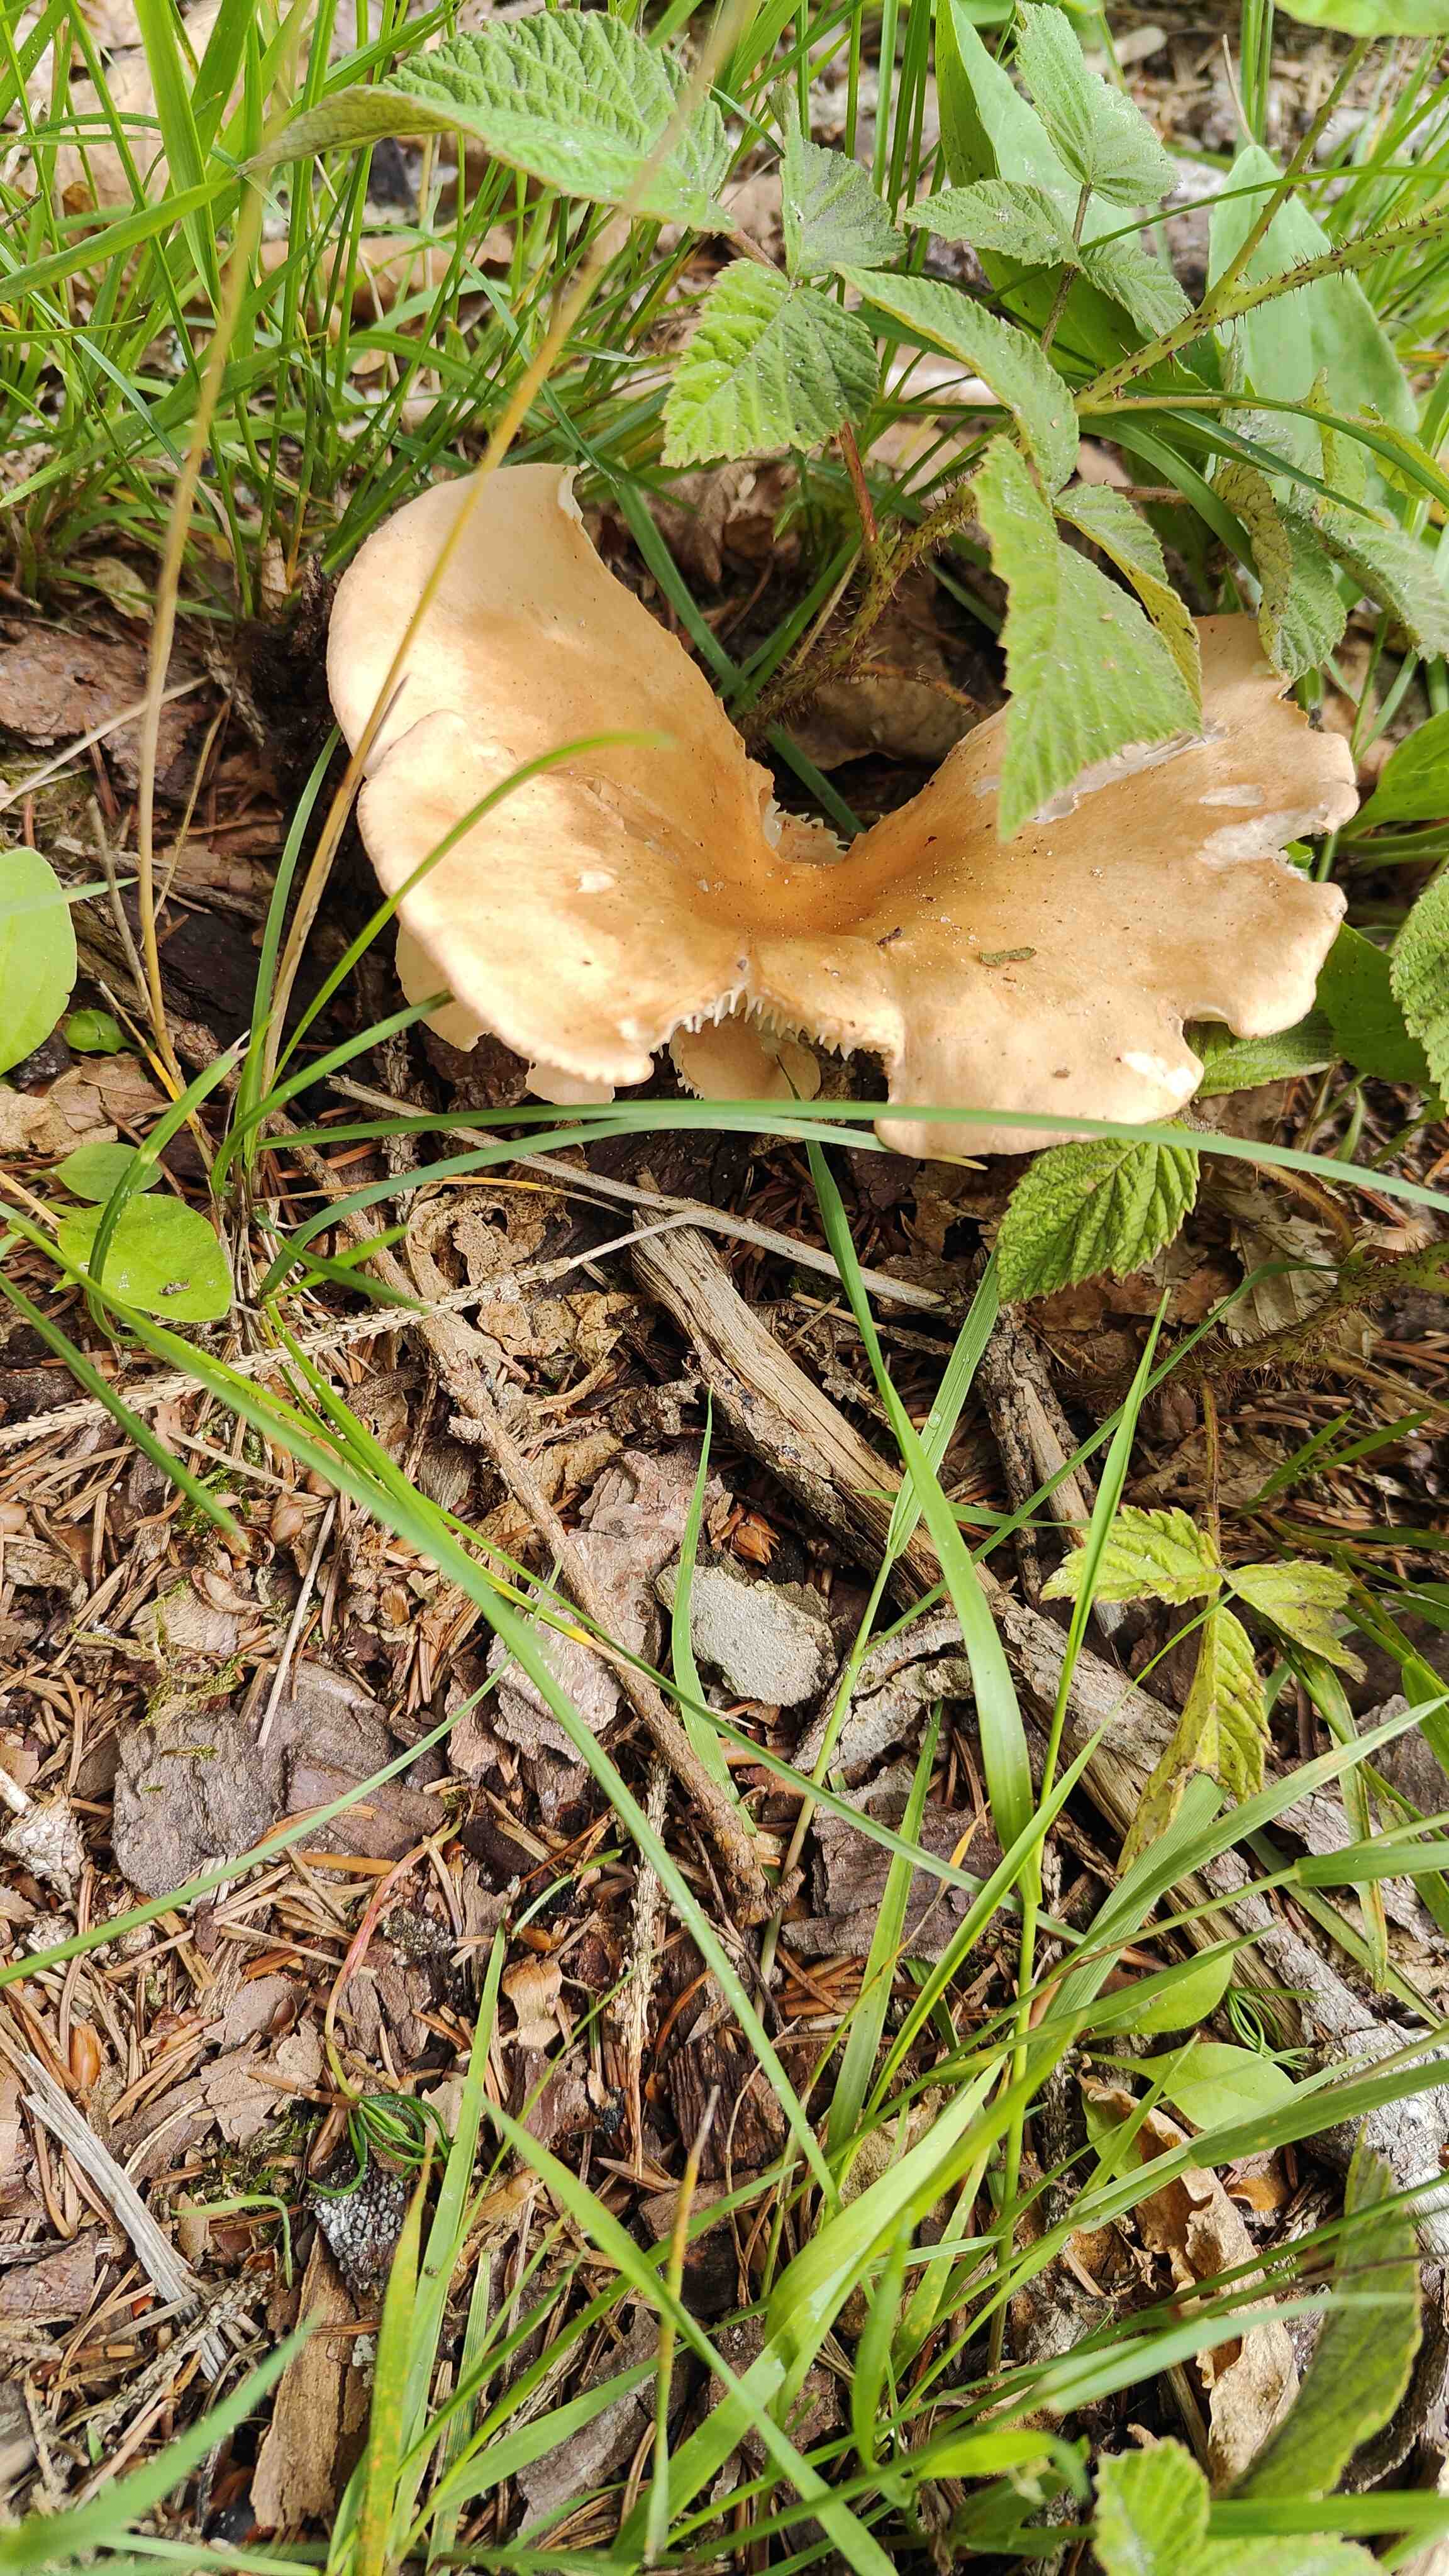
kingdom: Fungi
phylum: Basidiomycota
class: Agaricomycetes
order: Agaricales
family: Tricholomataceae
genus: Infundibulicybe
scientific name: Infundibulicybe gibba
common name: almindelig tragthat
